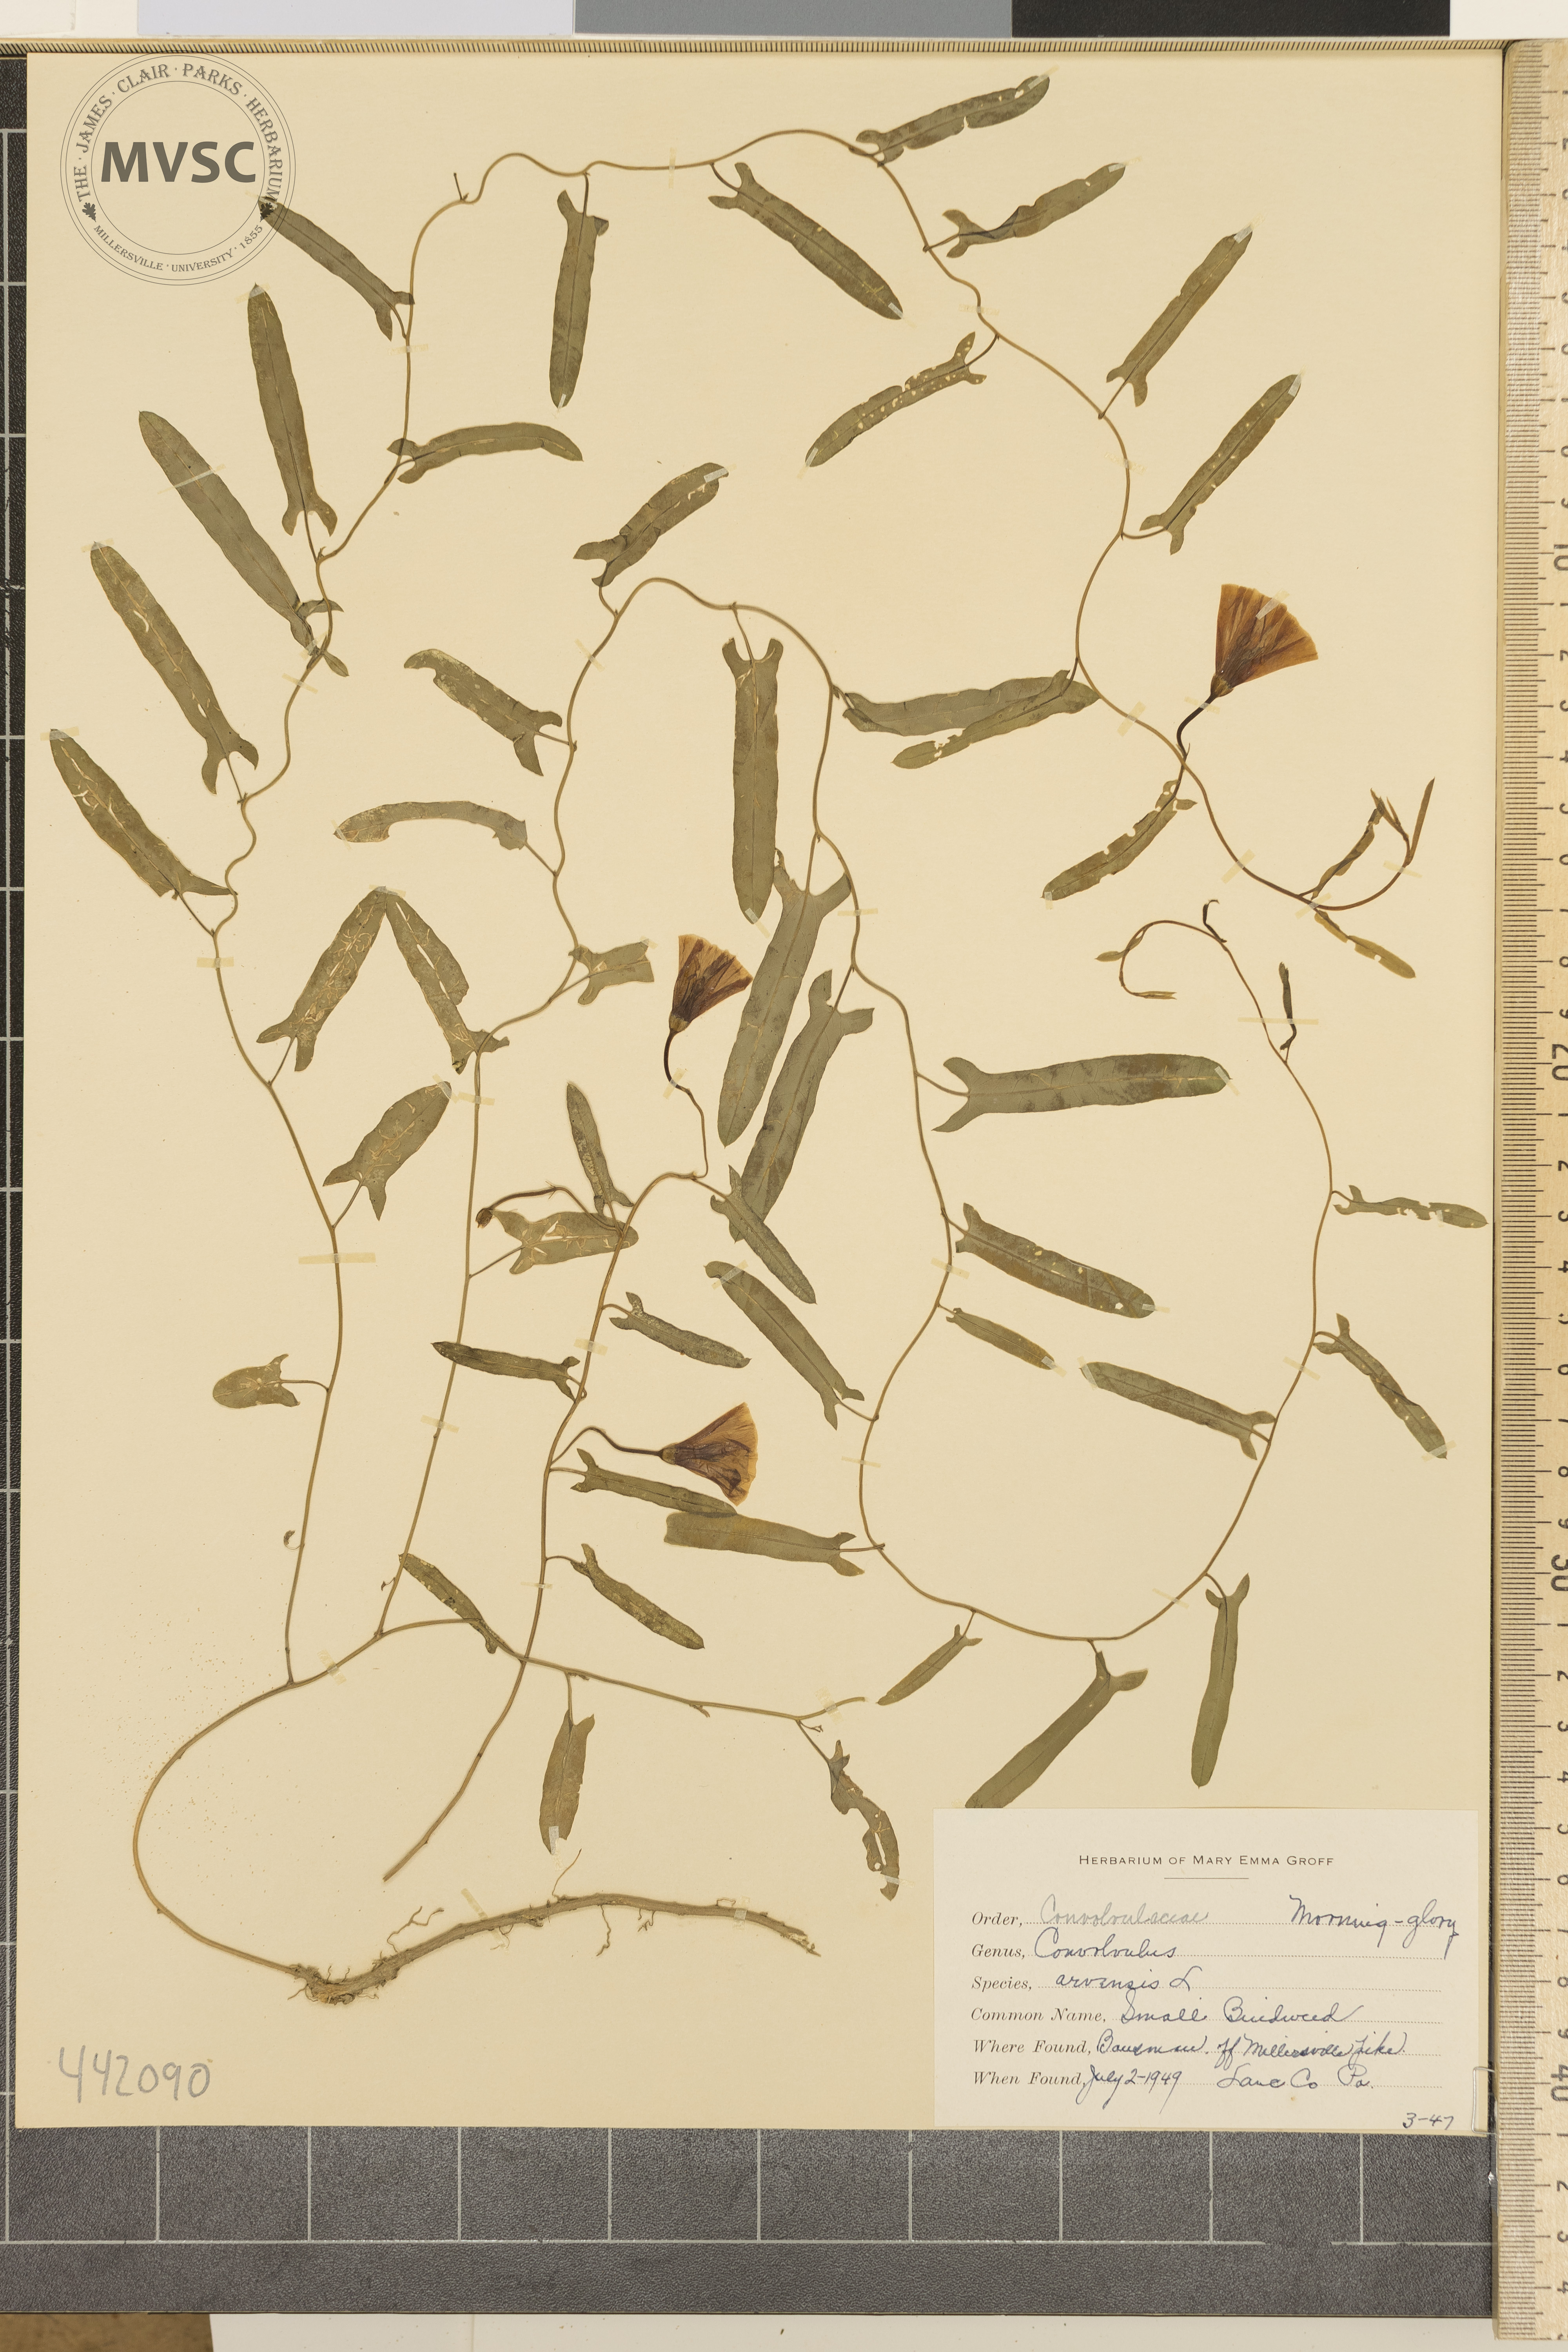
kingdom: Plantae
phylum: Tracheophyta
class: Magnoliopsida
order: Solanales
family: Convolvulaceae
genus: Convolvulus
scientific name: Convolvulus arvensis
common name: Small bindweed
